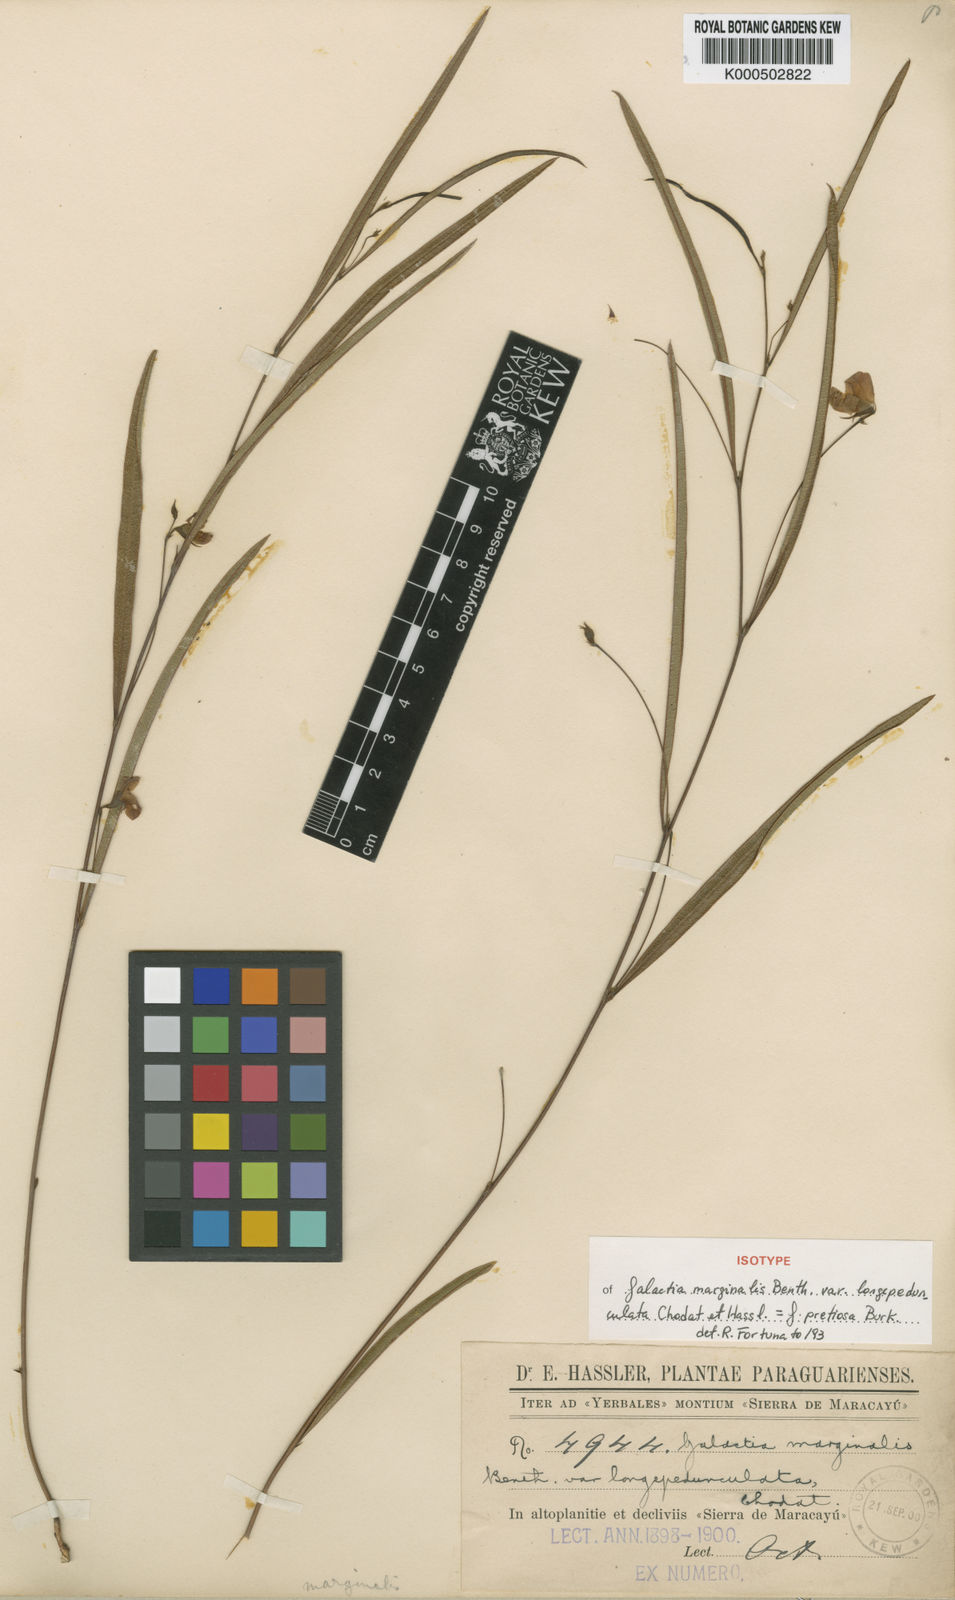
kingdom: Plantae
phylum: Tracheophyta
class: Magnoliopsida
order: Fabales
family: Fabaceae
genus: Nanogalactia
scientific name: Nanogalactia heterophylla
